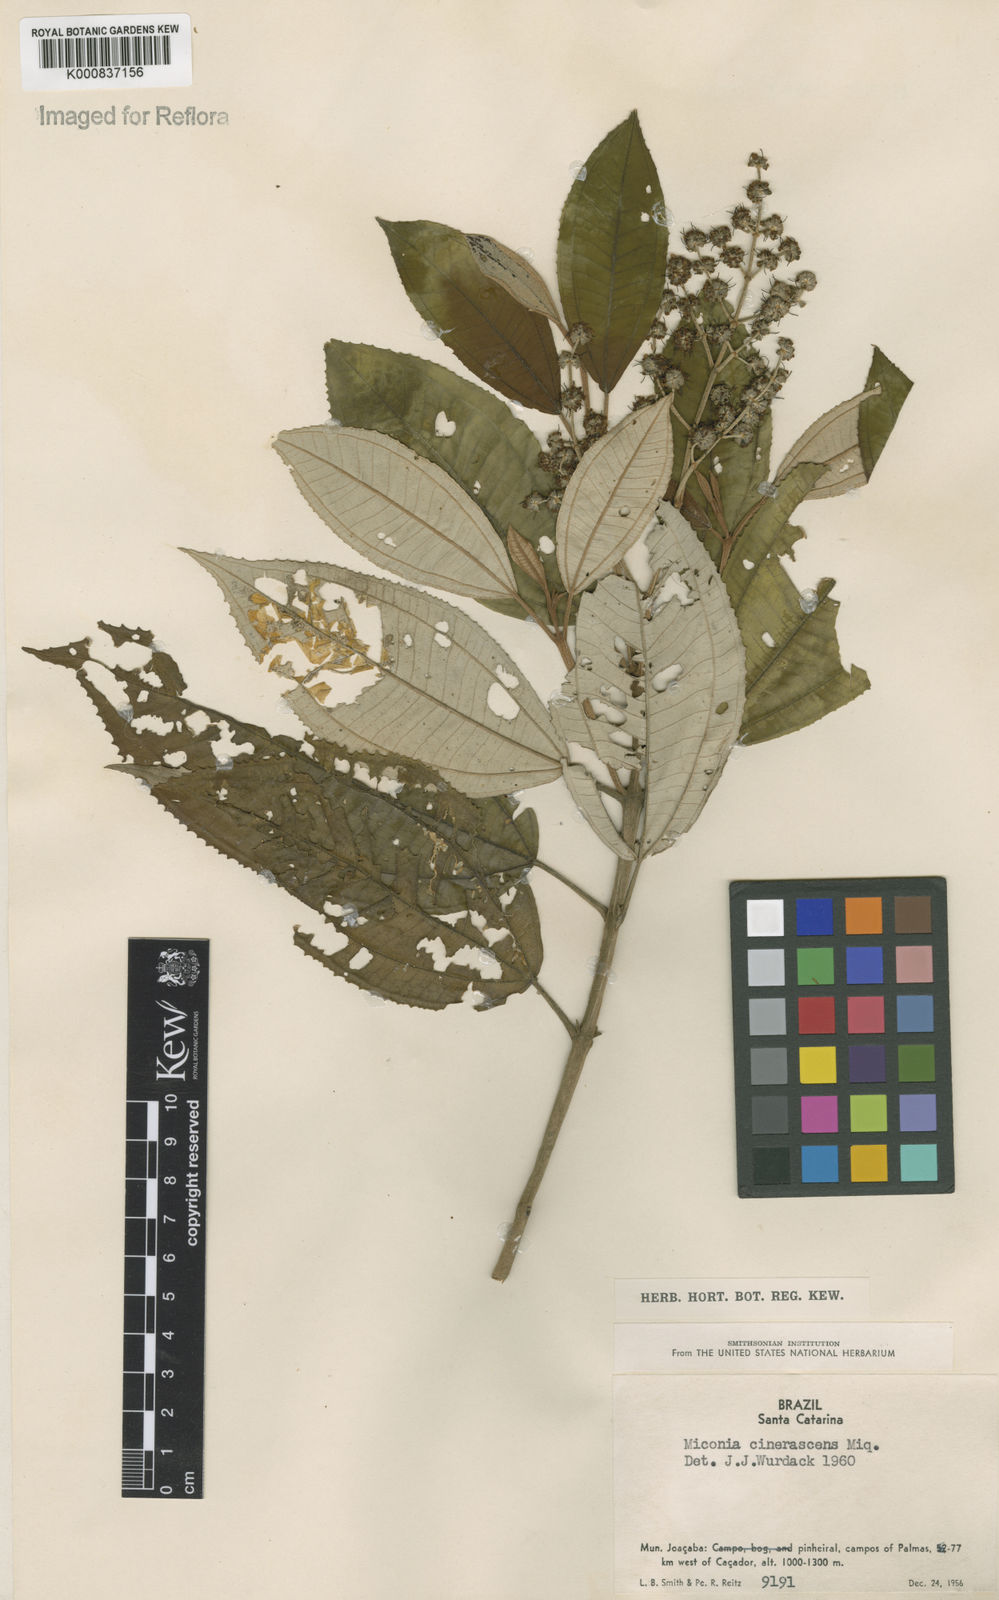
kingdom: Plantae
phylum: Tracheophyta
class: Magnoliopsida
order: Myrtales
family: Melastomataceae
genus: Miconia
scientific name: Miconia cinerascens
